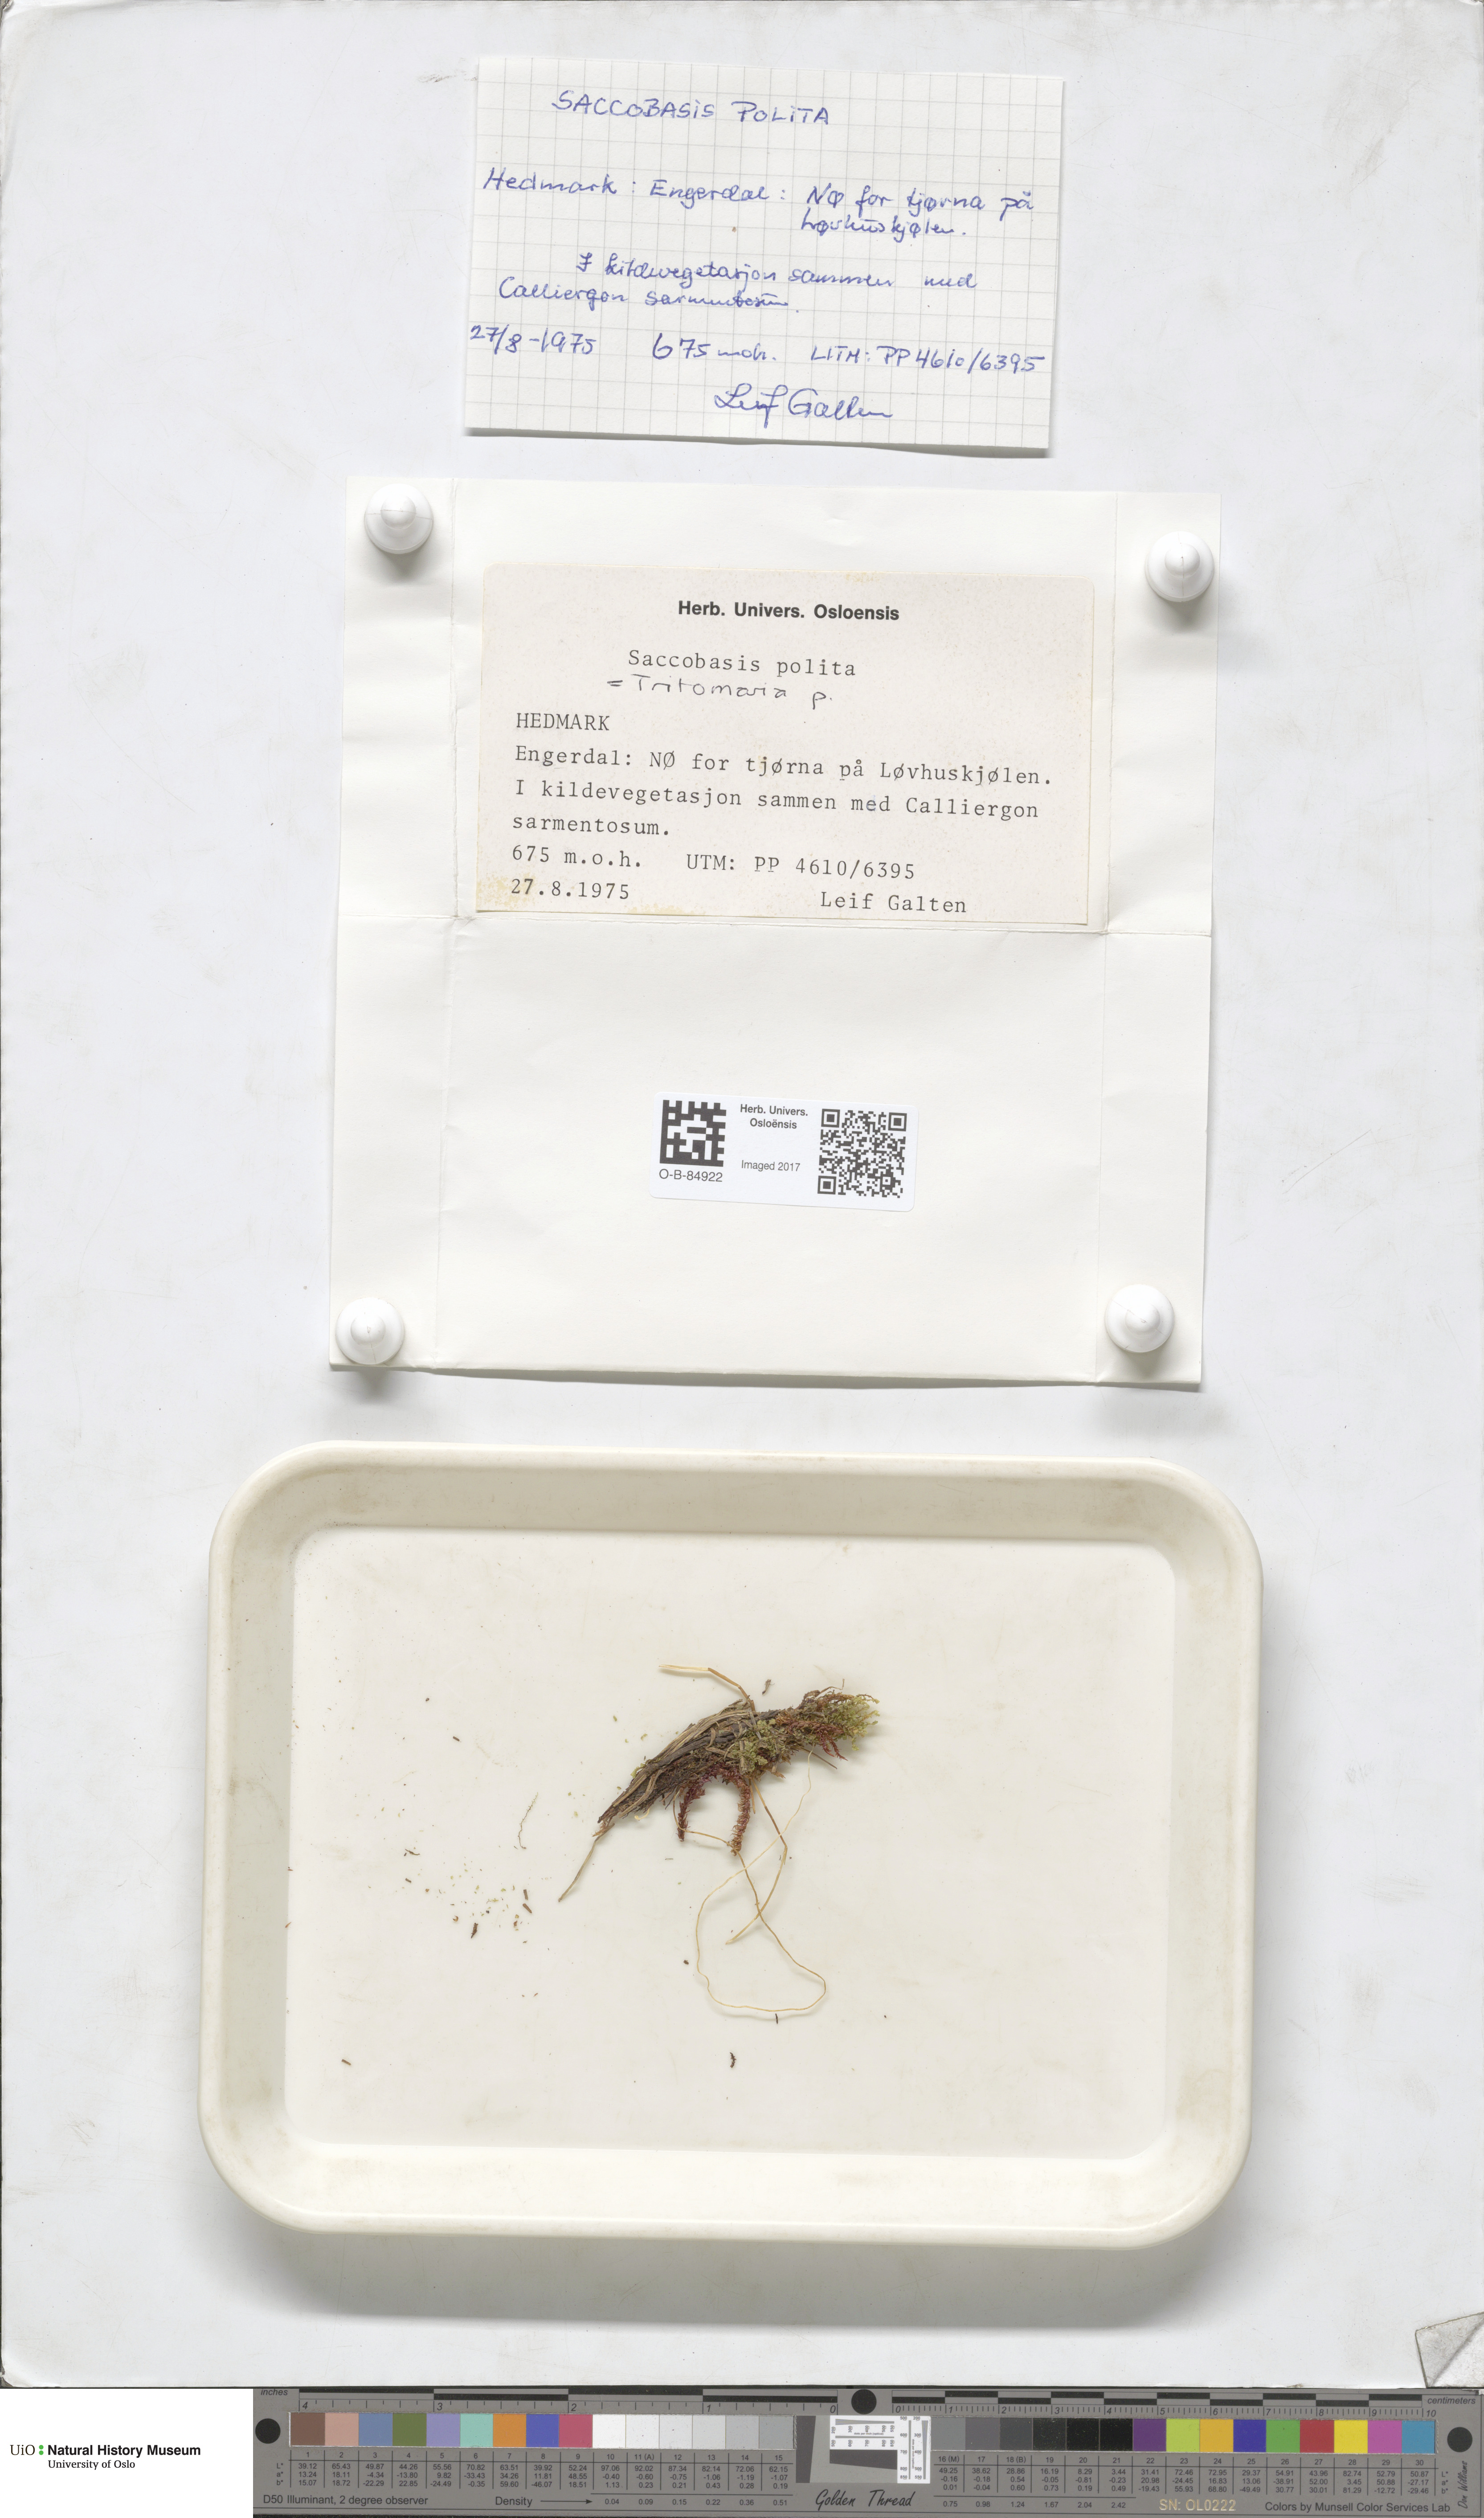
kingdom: Plantae
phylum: Marchantiophyta
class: Jungermanniopsida
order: Jungermanniales
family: Scapaniaceae
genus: Saccobasis
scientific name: Saccobasis polita
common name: Flush notchwort
